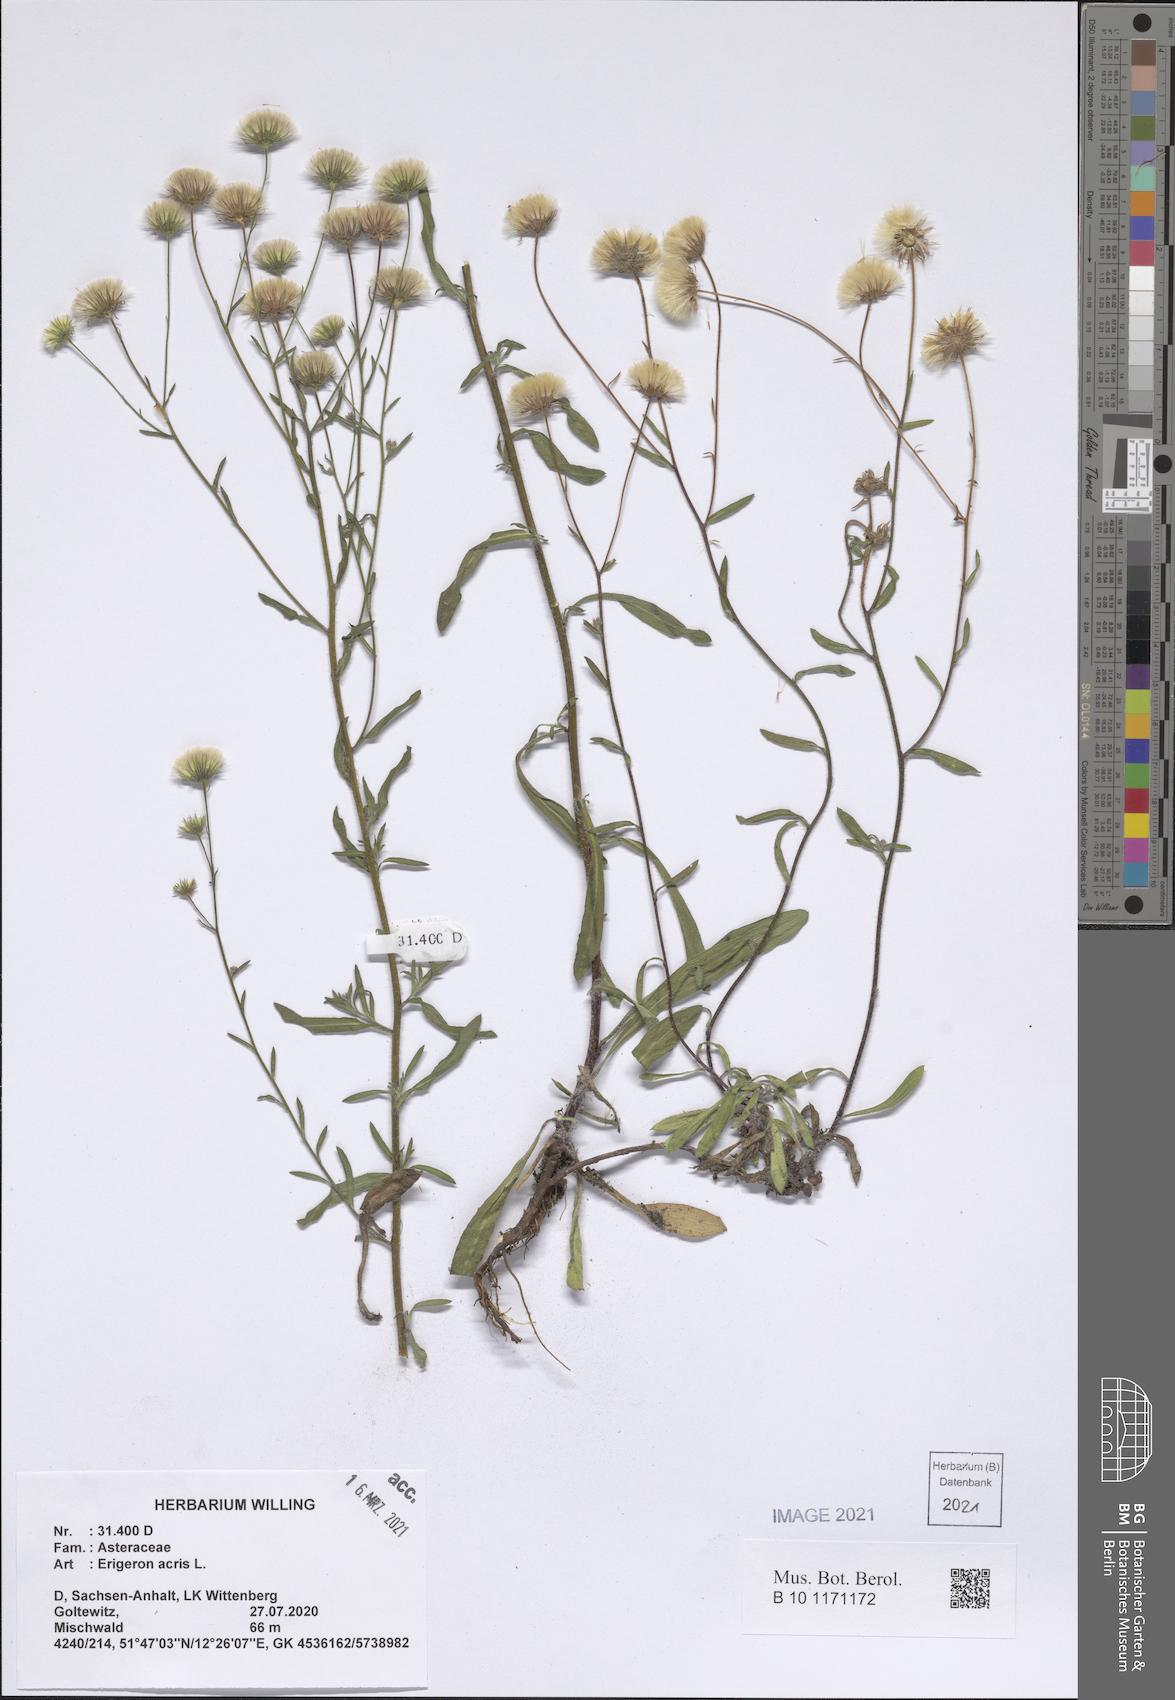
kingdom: Plantae
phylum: Tracheophyta
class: Magnoliopsida
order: Asterales
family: Asteraceae
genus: Erigeron
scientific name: Erigeron acris
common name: Blue fleabane
